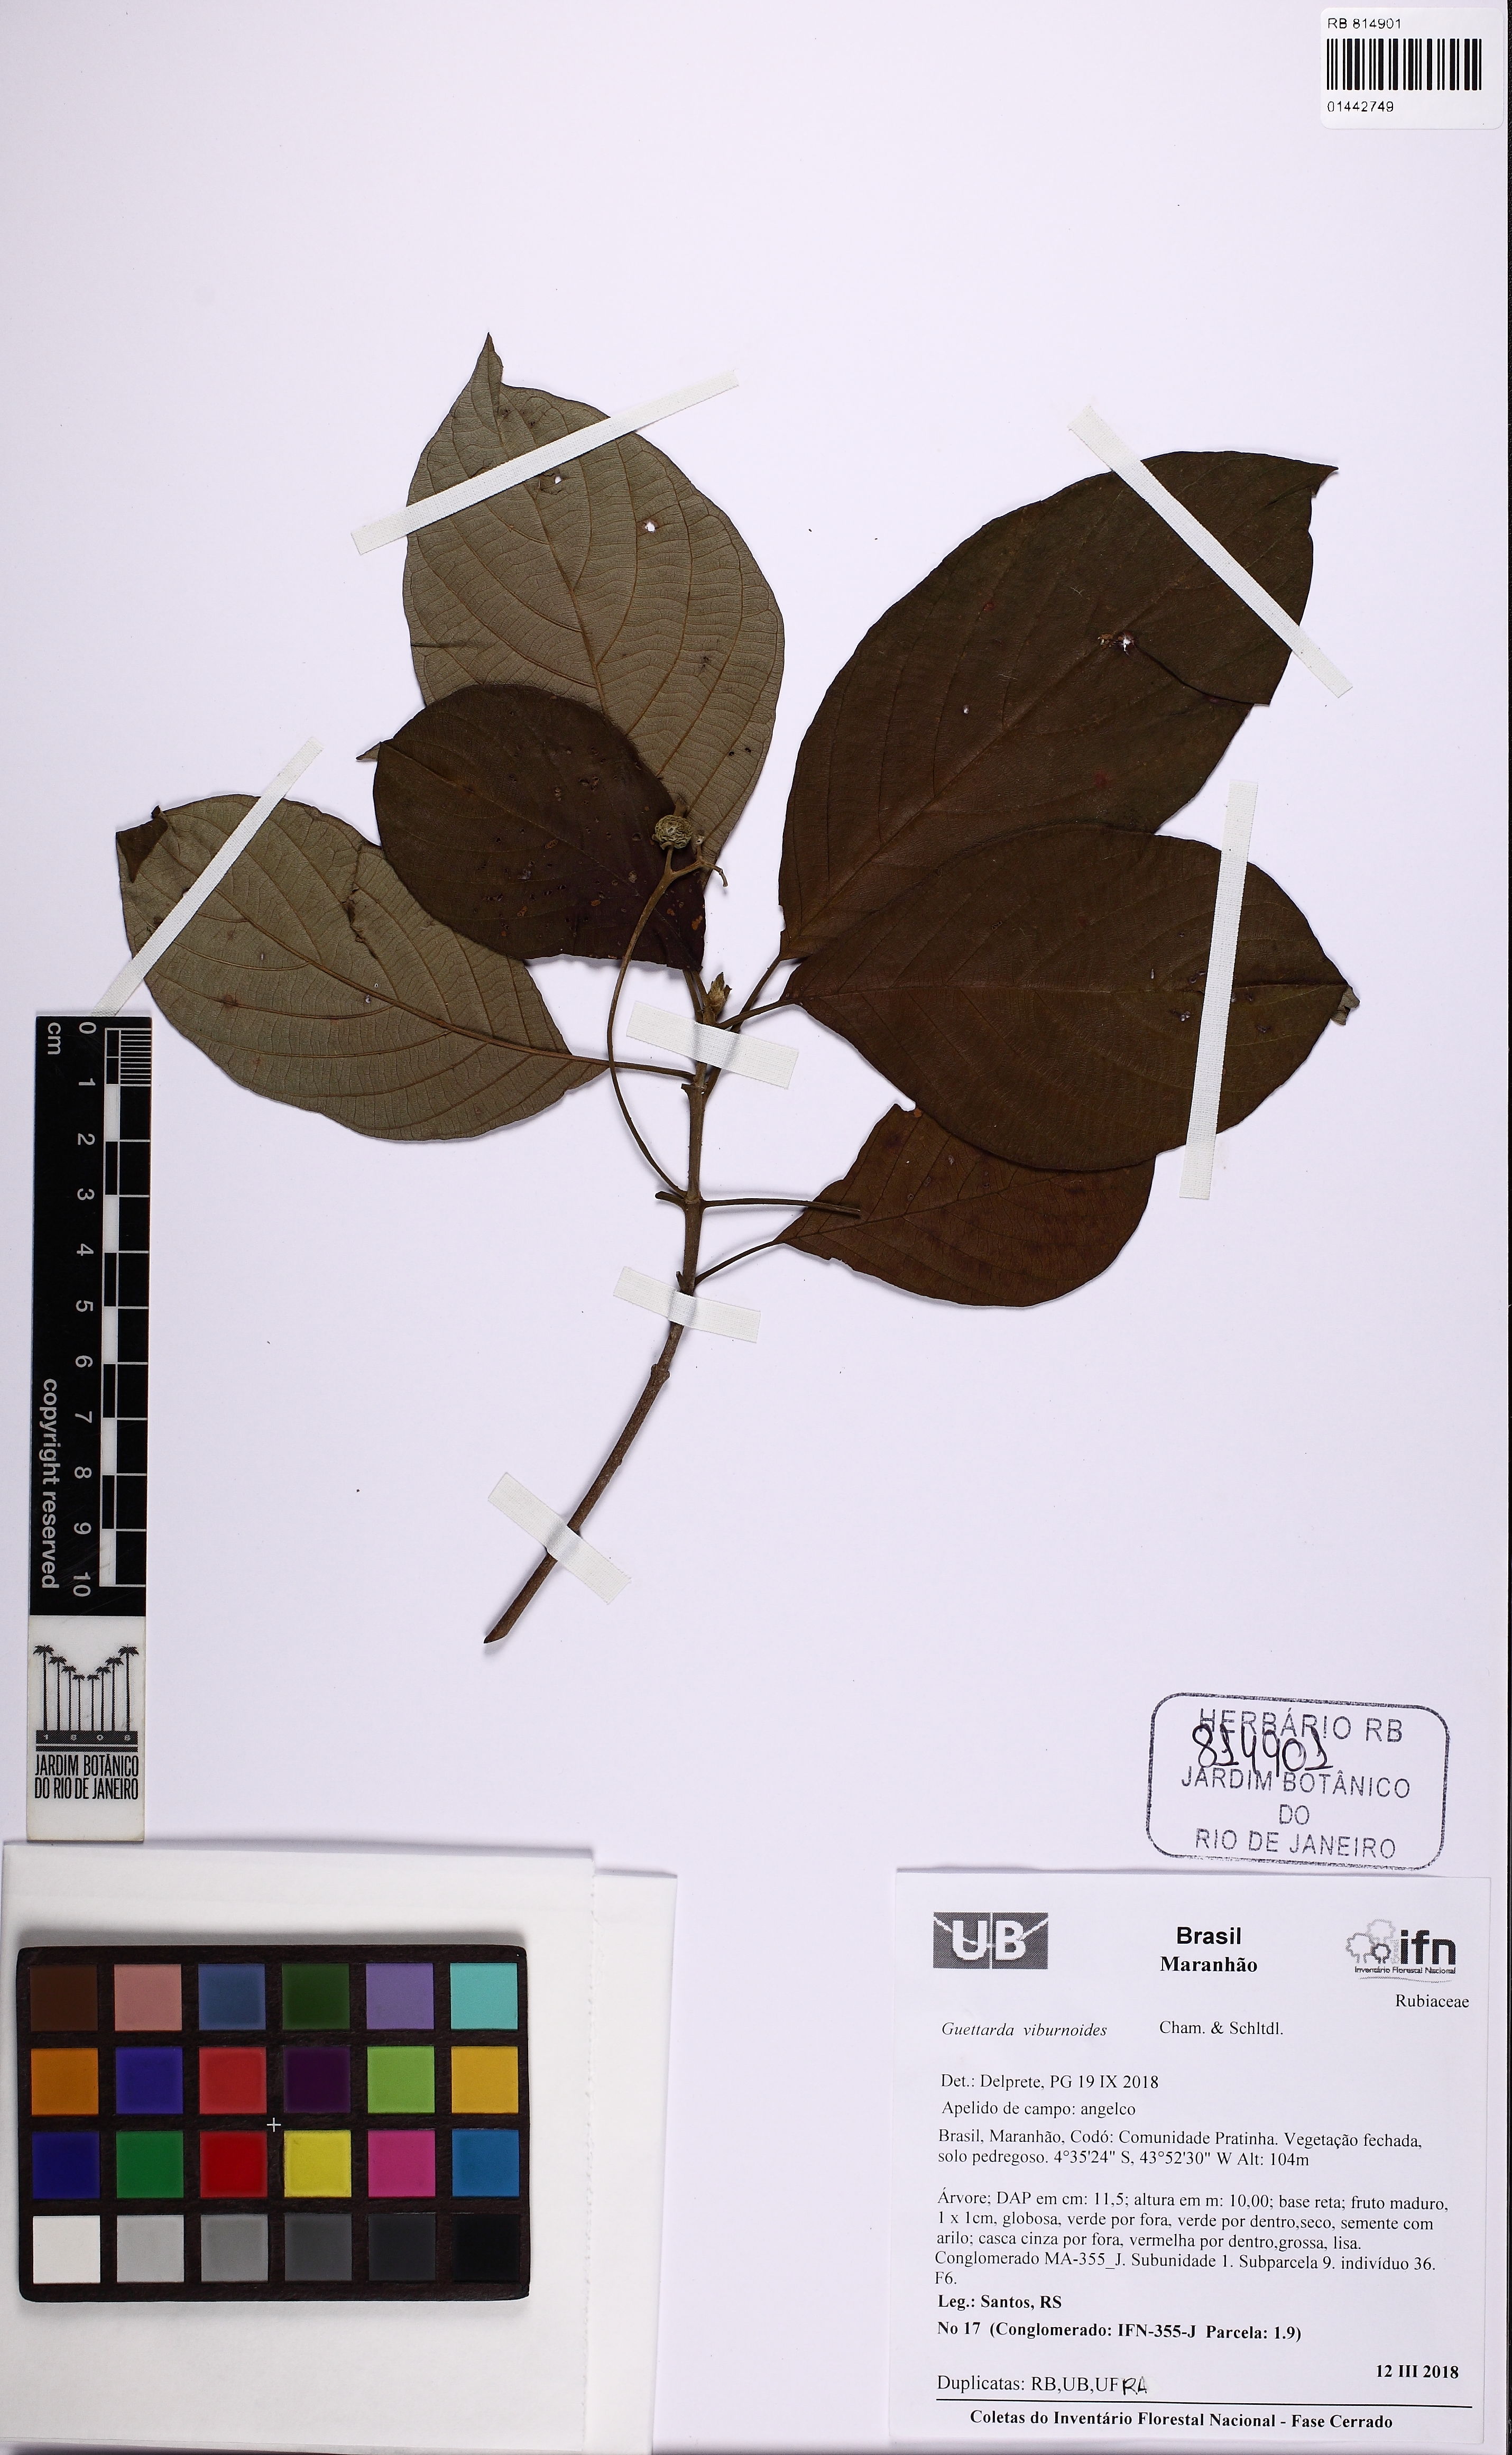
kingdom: Plantae
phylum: Tracheophyta
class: Magnoliopsida
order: Gentianales
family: Rubiaceae
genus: Guettarda
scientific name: Guettarda viburnoides
